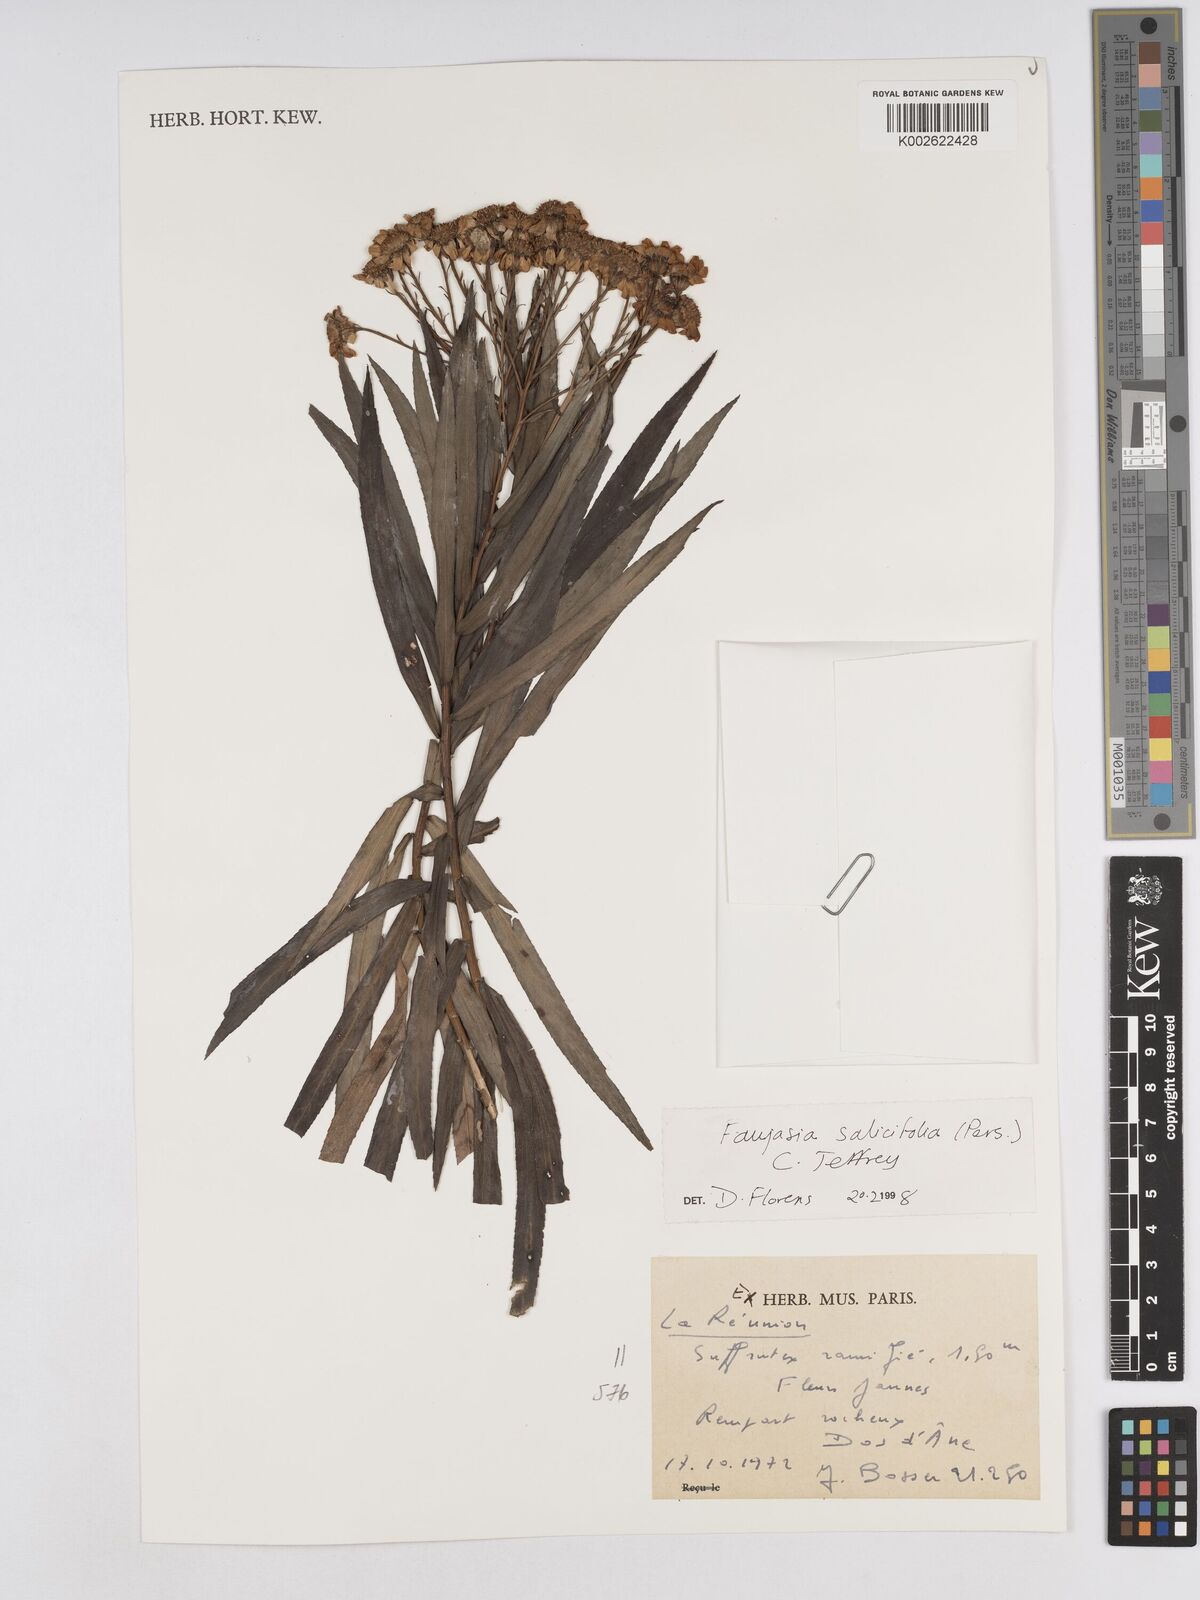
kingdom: Plantae
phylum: Tracheophyta
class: Magnoliopsida
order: Asterales
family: Asteraceae
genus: Faujasia
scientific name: Faujasia salicifolia
